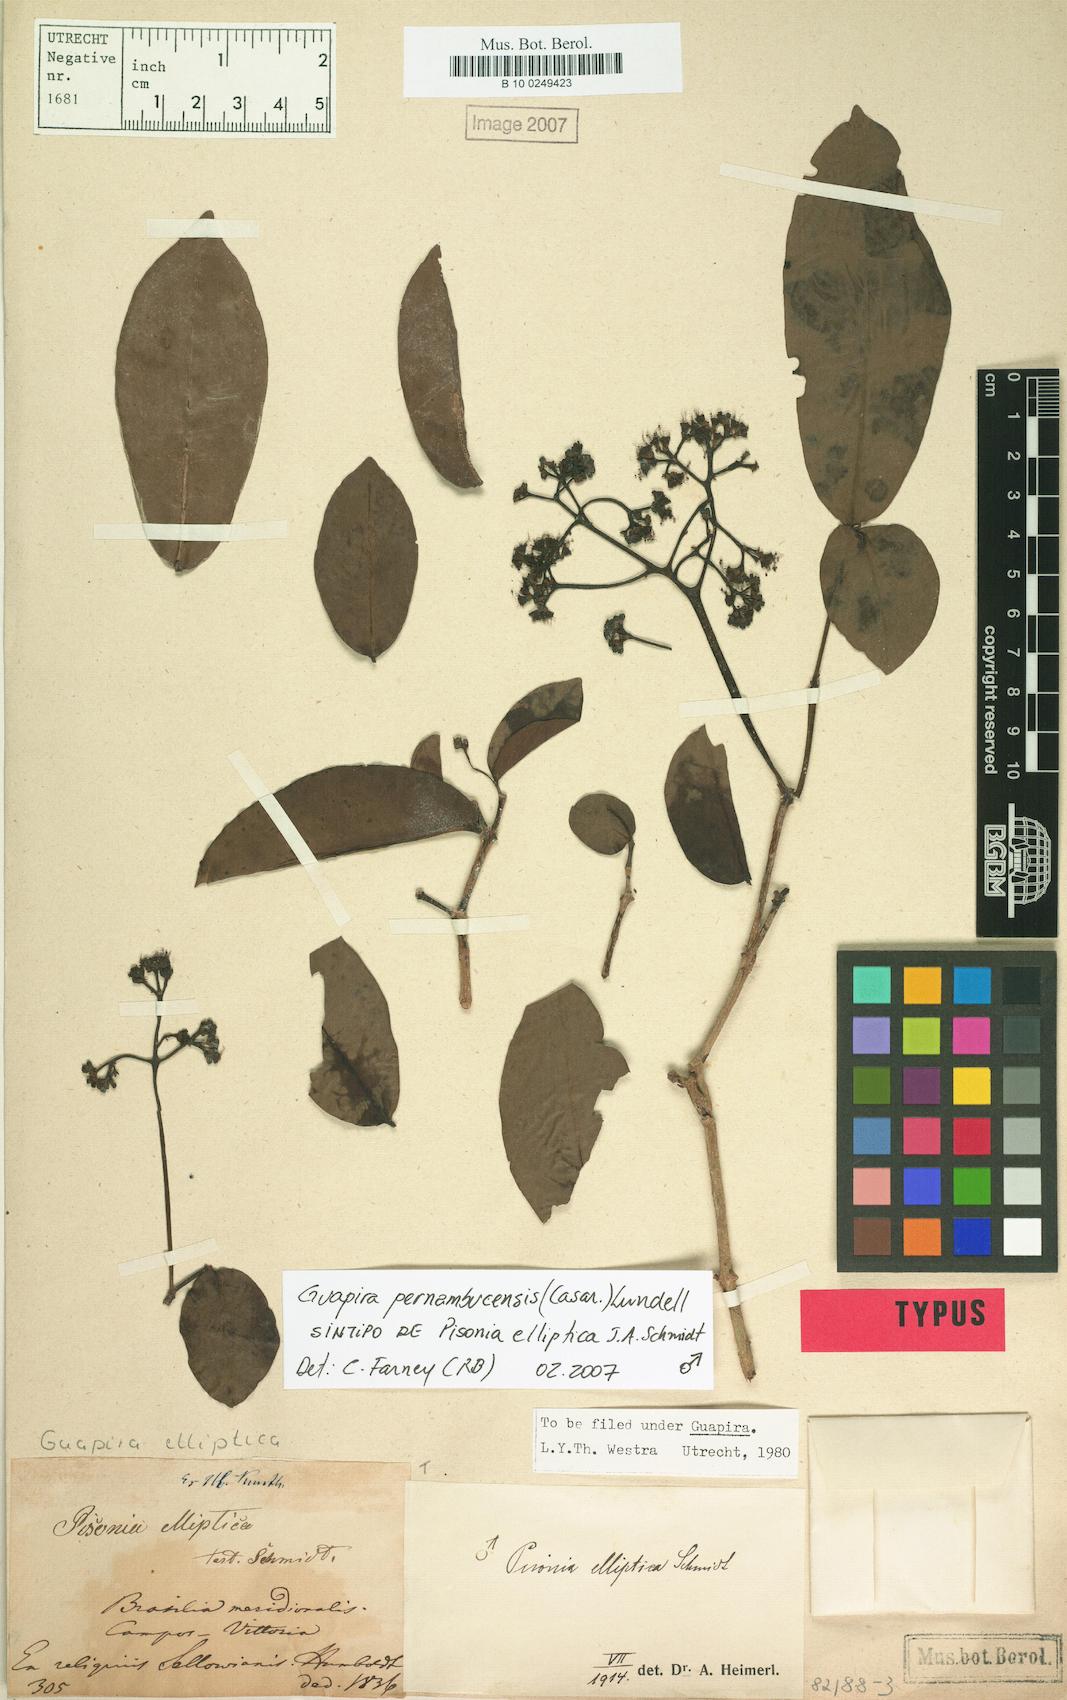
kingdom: Plantae
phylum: Tracheophyta
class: Magnoliopsida
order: Caryophyllales
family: Nyctaginaceae
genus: Guapira
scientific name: Guapira pernambucensis
